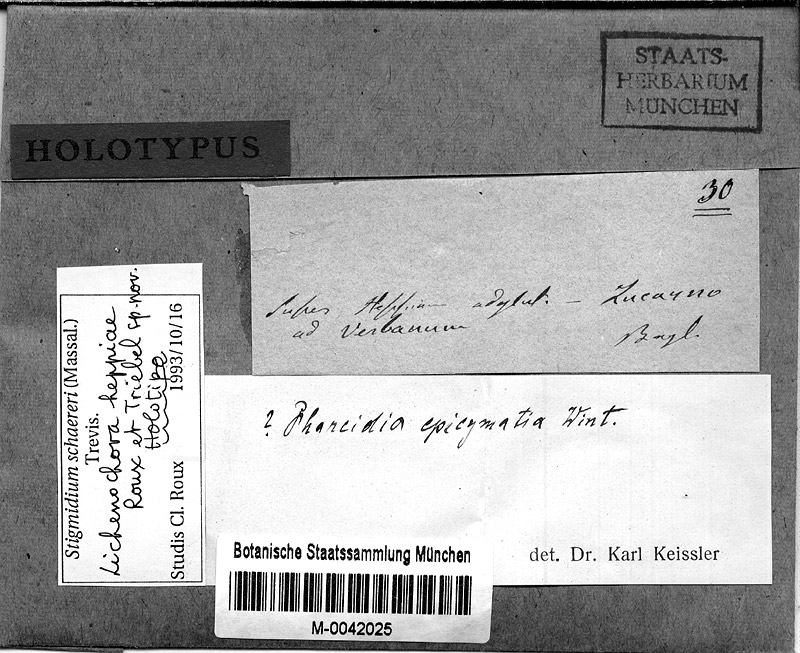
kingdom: Fungi
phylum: Ascomycota
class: Sordariomycetes
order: Phyllachorales
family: Phyllachoraceae
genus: Lichenochora
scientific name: Lichenochora heppiae
